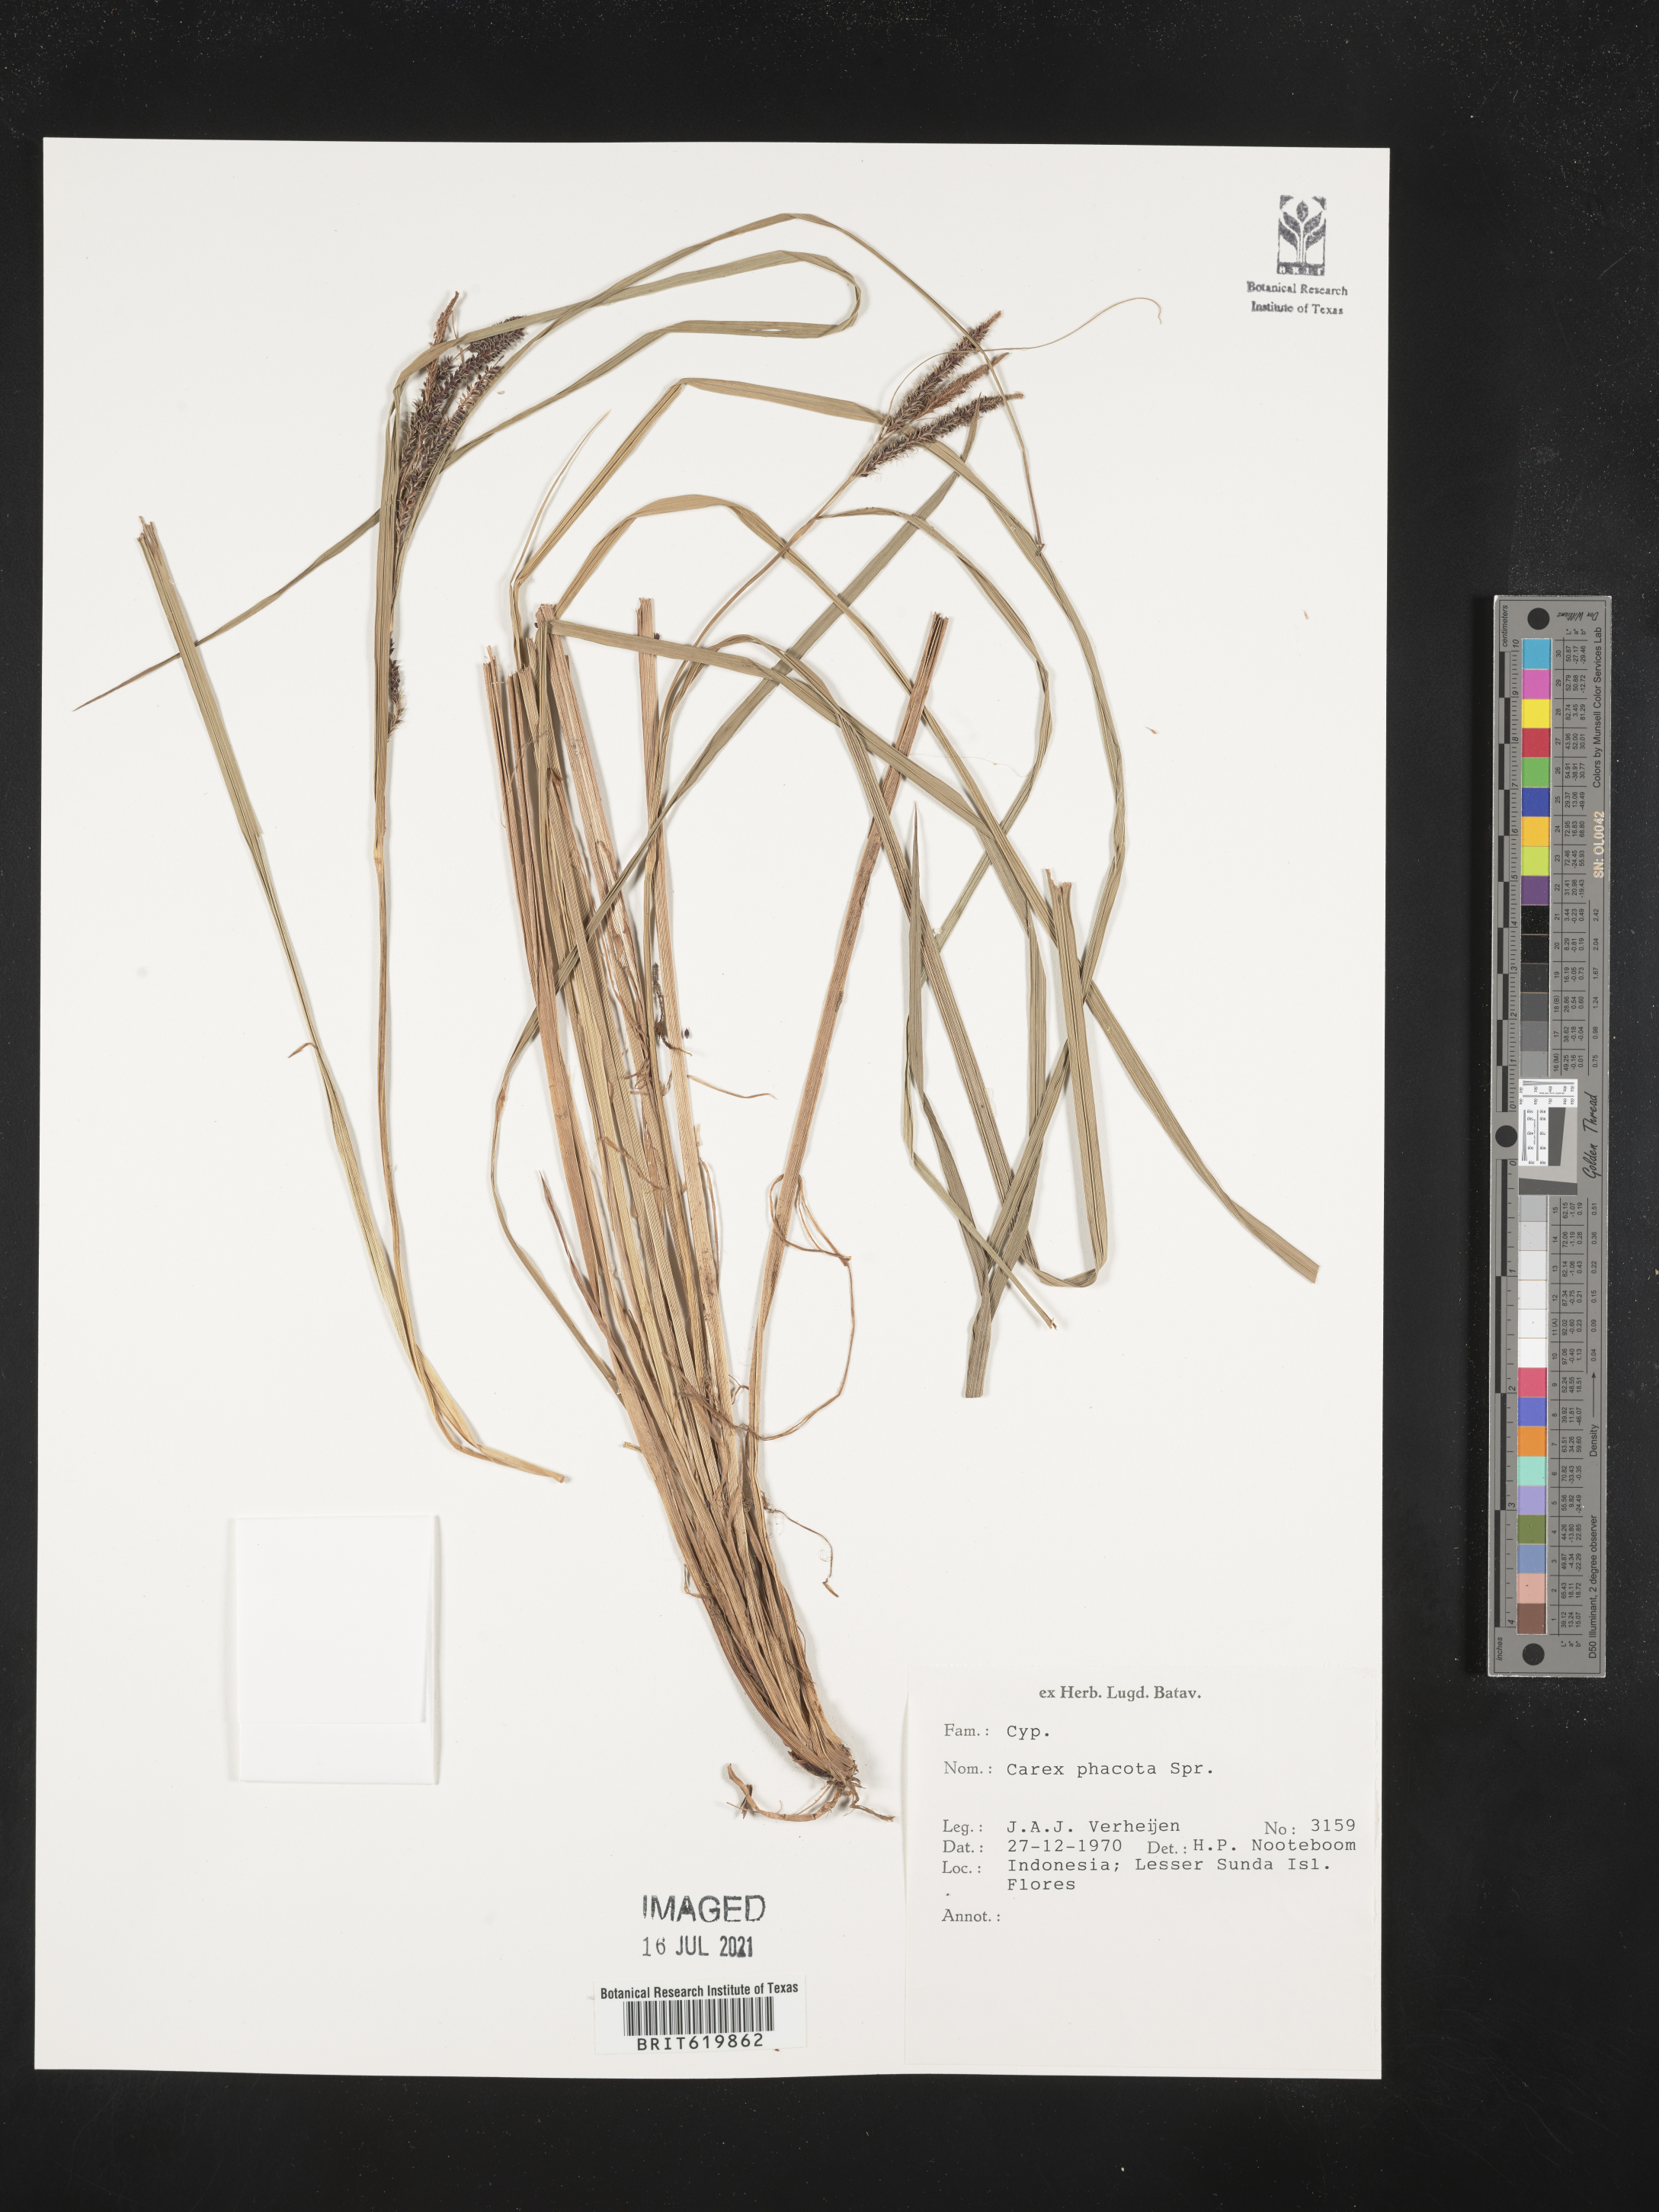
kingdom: Plantae
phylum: Tracheophyta
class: Liliopsida
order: Poales
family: Cyperaceae
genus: Carex
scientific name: Carex phacota
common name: Lakeshore sedge
